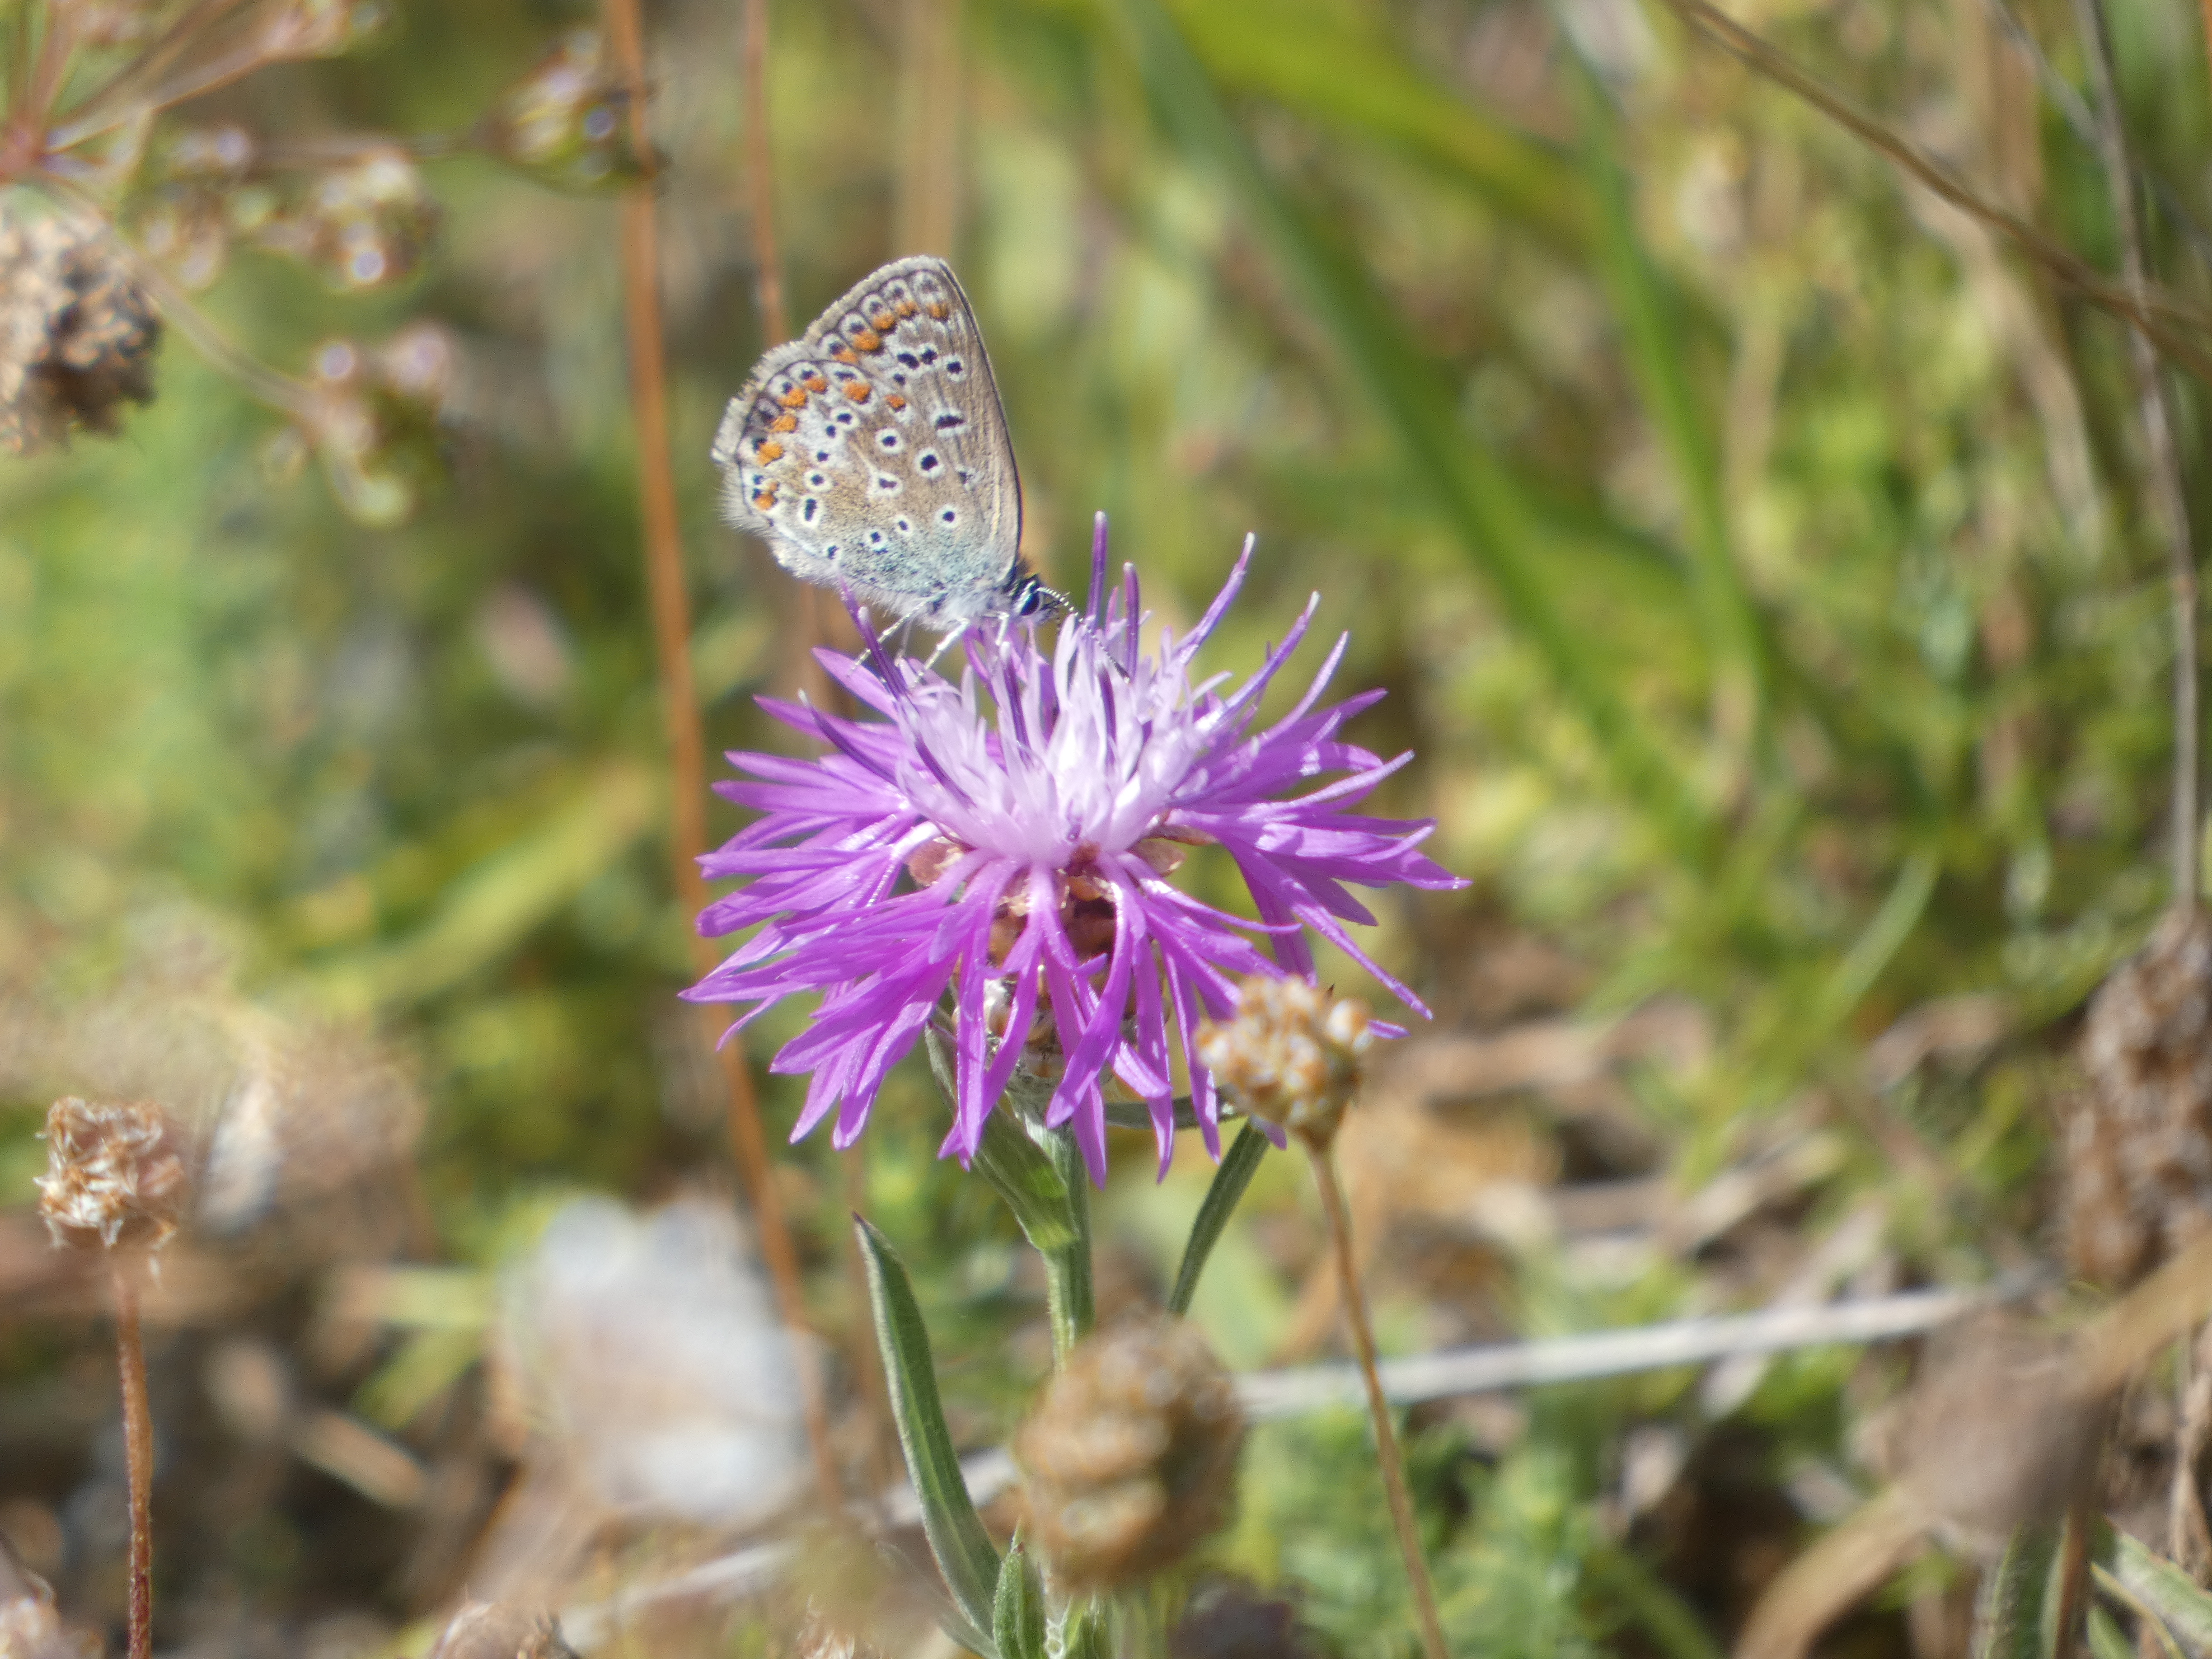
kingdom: Animalia
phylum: Arthropoda
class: Insecta
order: Lepidoptera
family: Lycaenidae
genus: Polyommatus
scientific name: Polyommatus icarus
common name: Almindelig blåfugl
